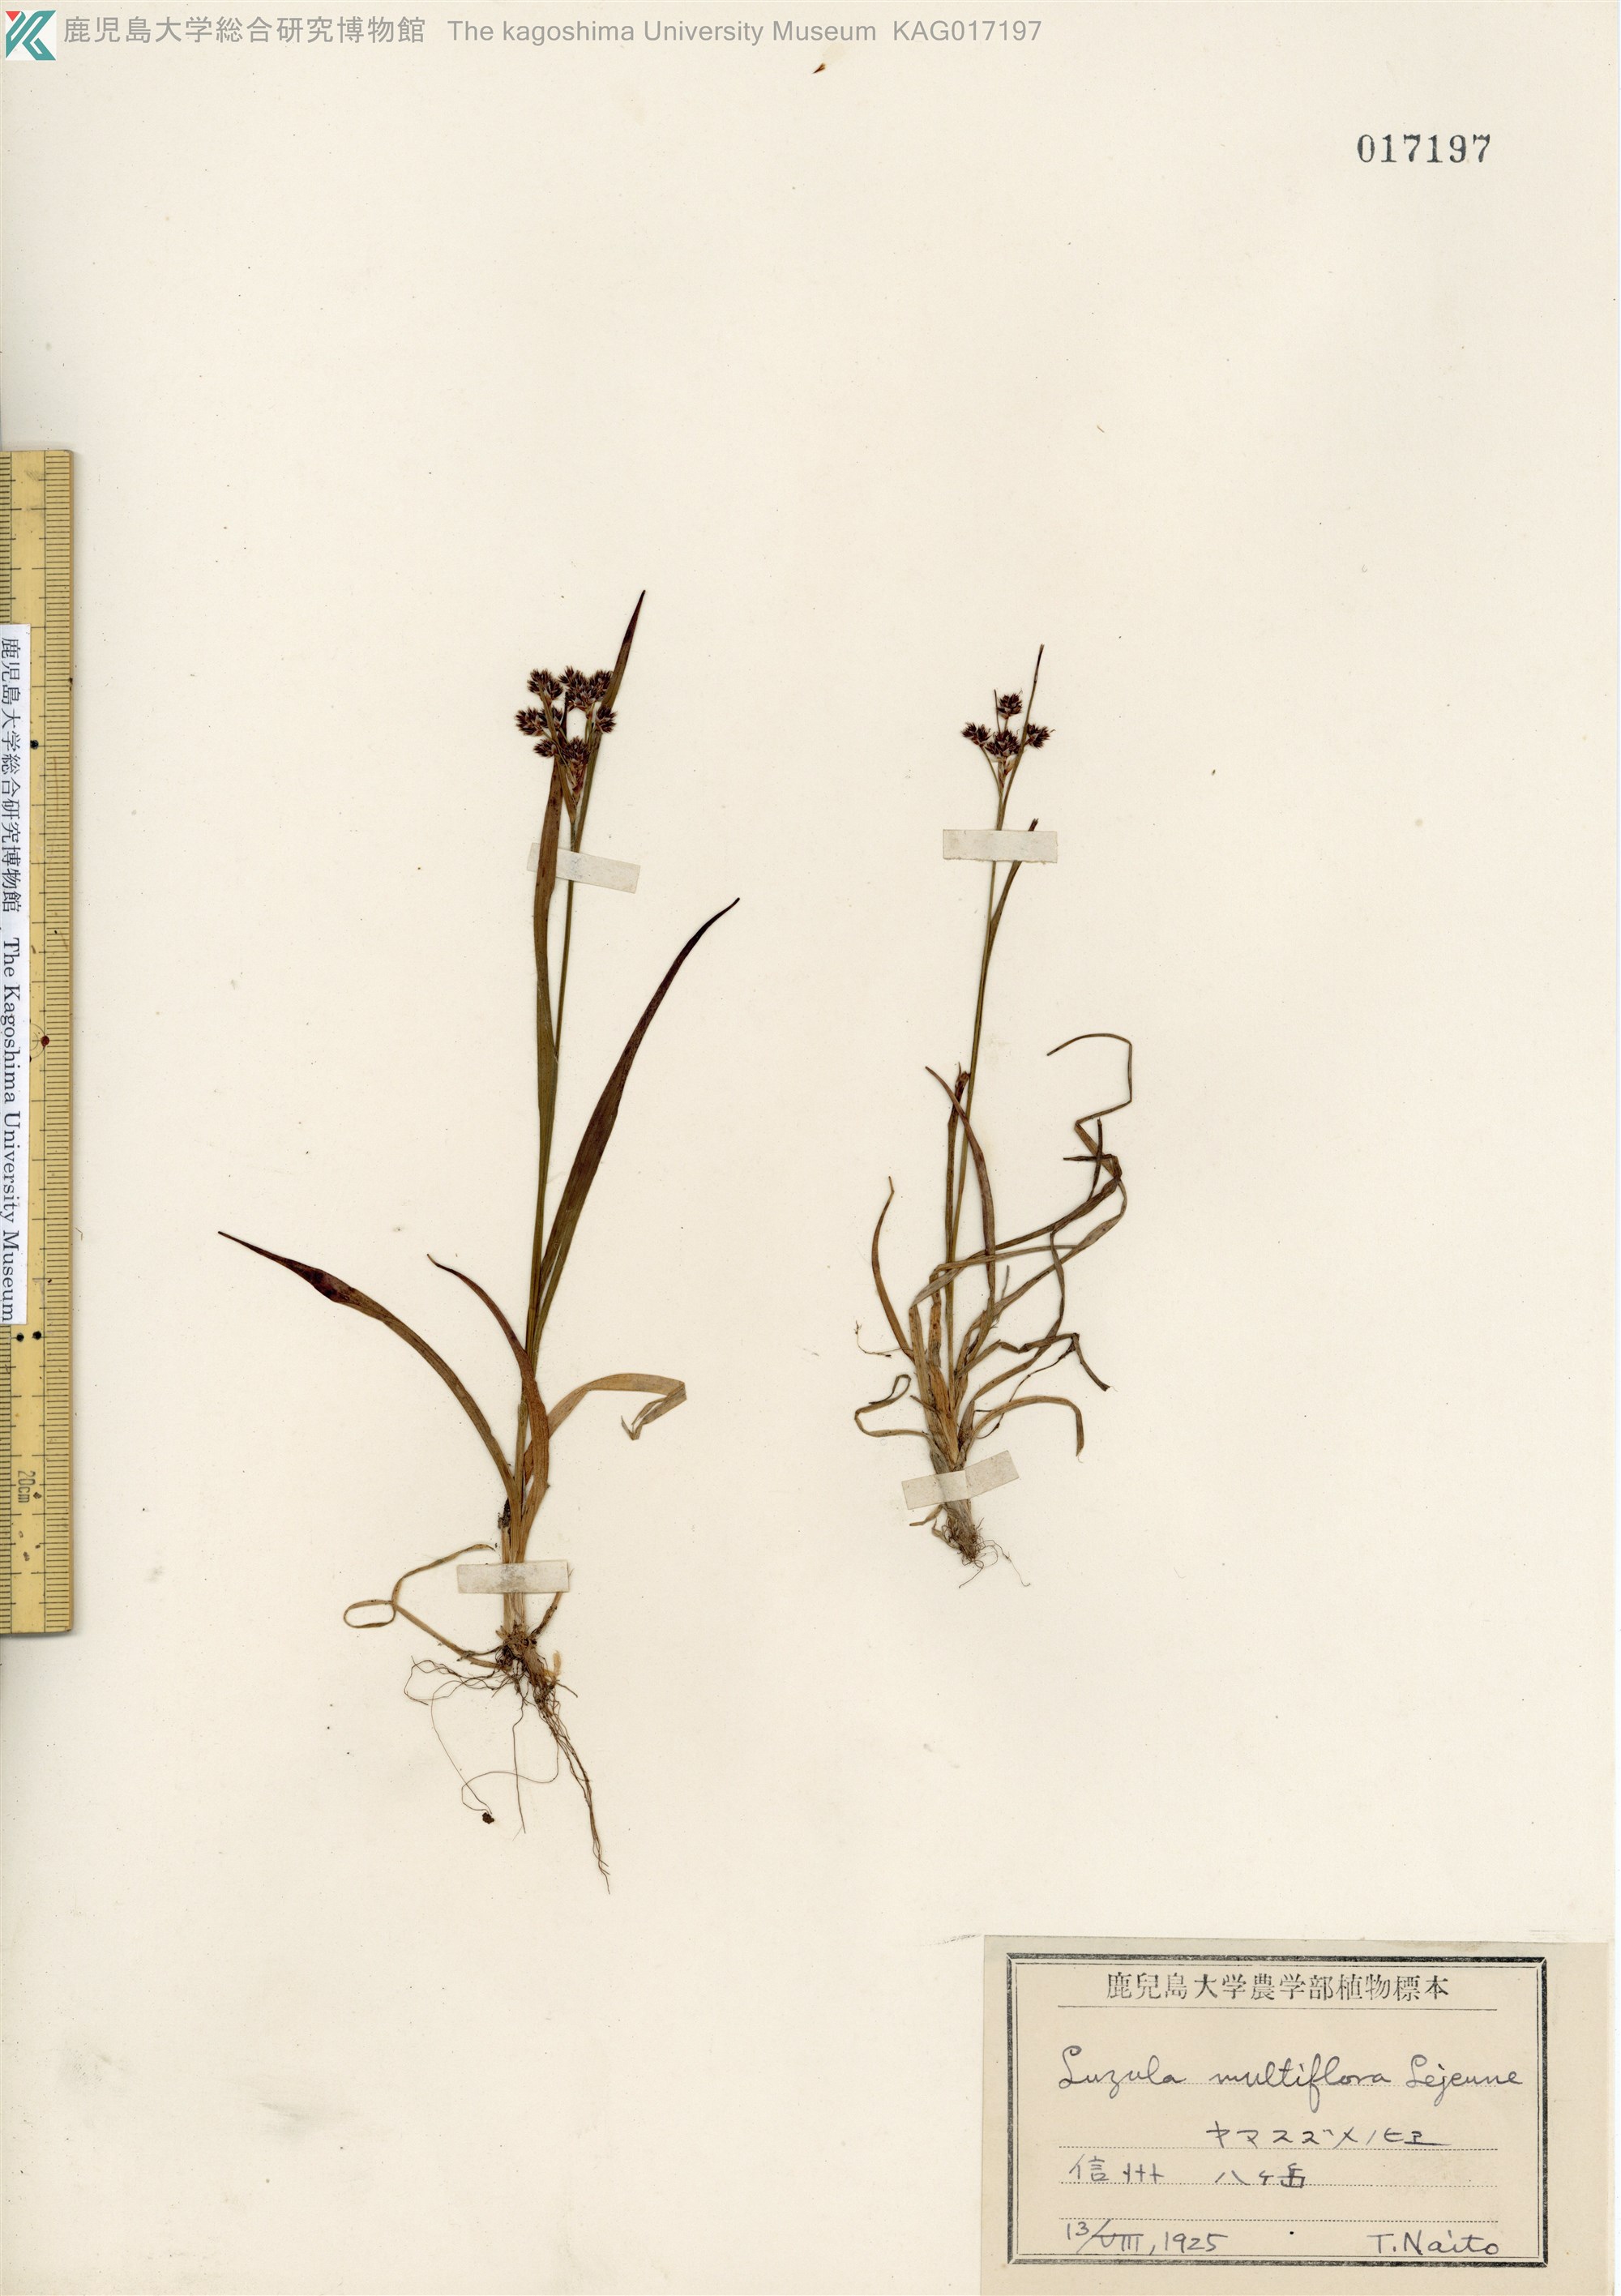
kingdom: Plantae
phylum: Tracheophyta
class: Liliopsida
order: Poales
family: Juncaceae
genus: Luzula
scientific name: Luzula multiflora
